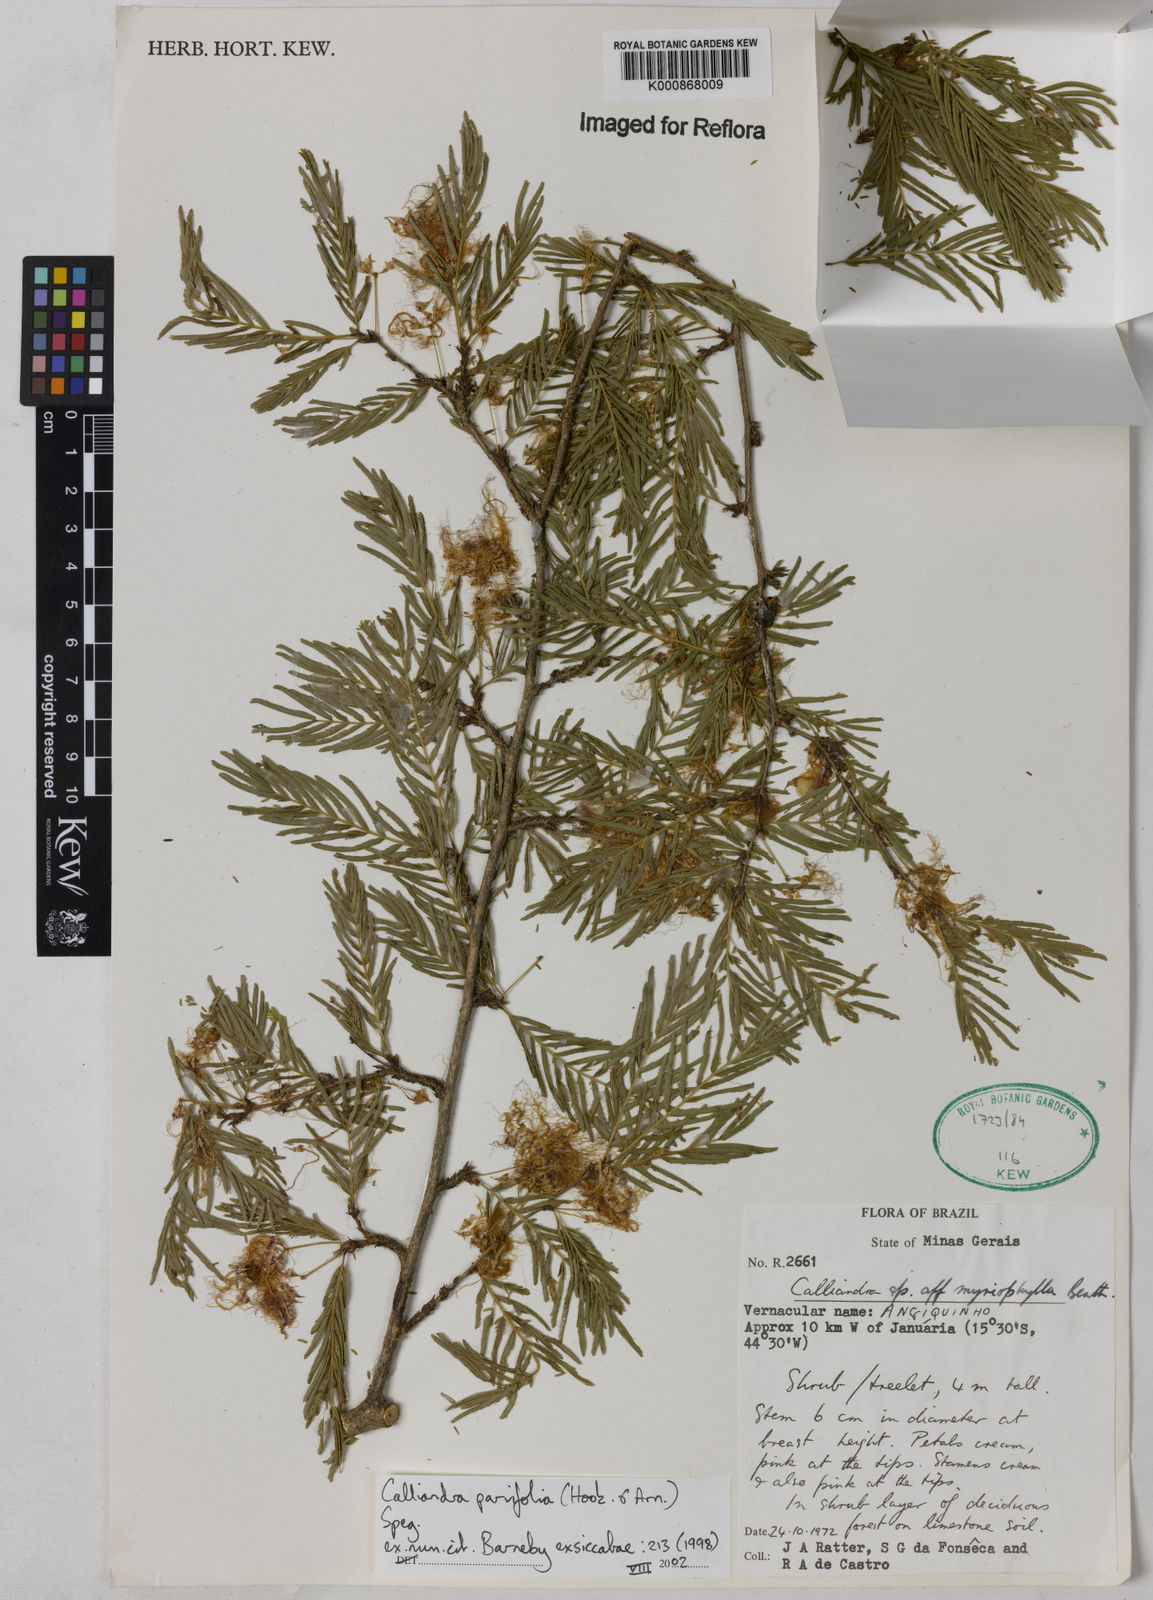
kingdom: Plantae
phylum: Tracheophyta
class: Magnoliopsida
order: Fabales
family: Fabaceae
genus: Calliandra
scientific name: Calliandra parvifolia
